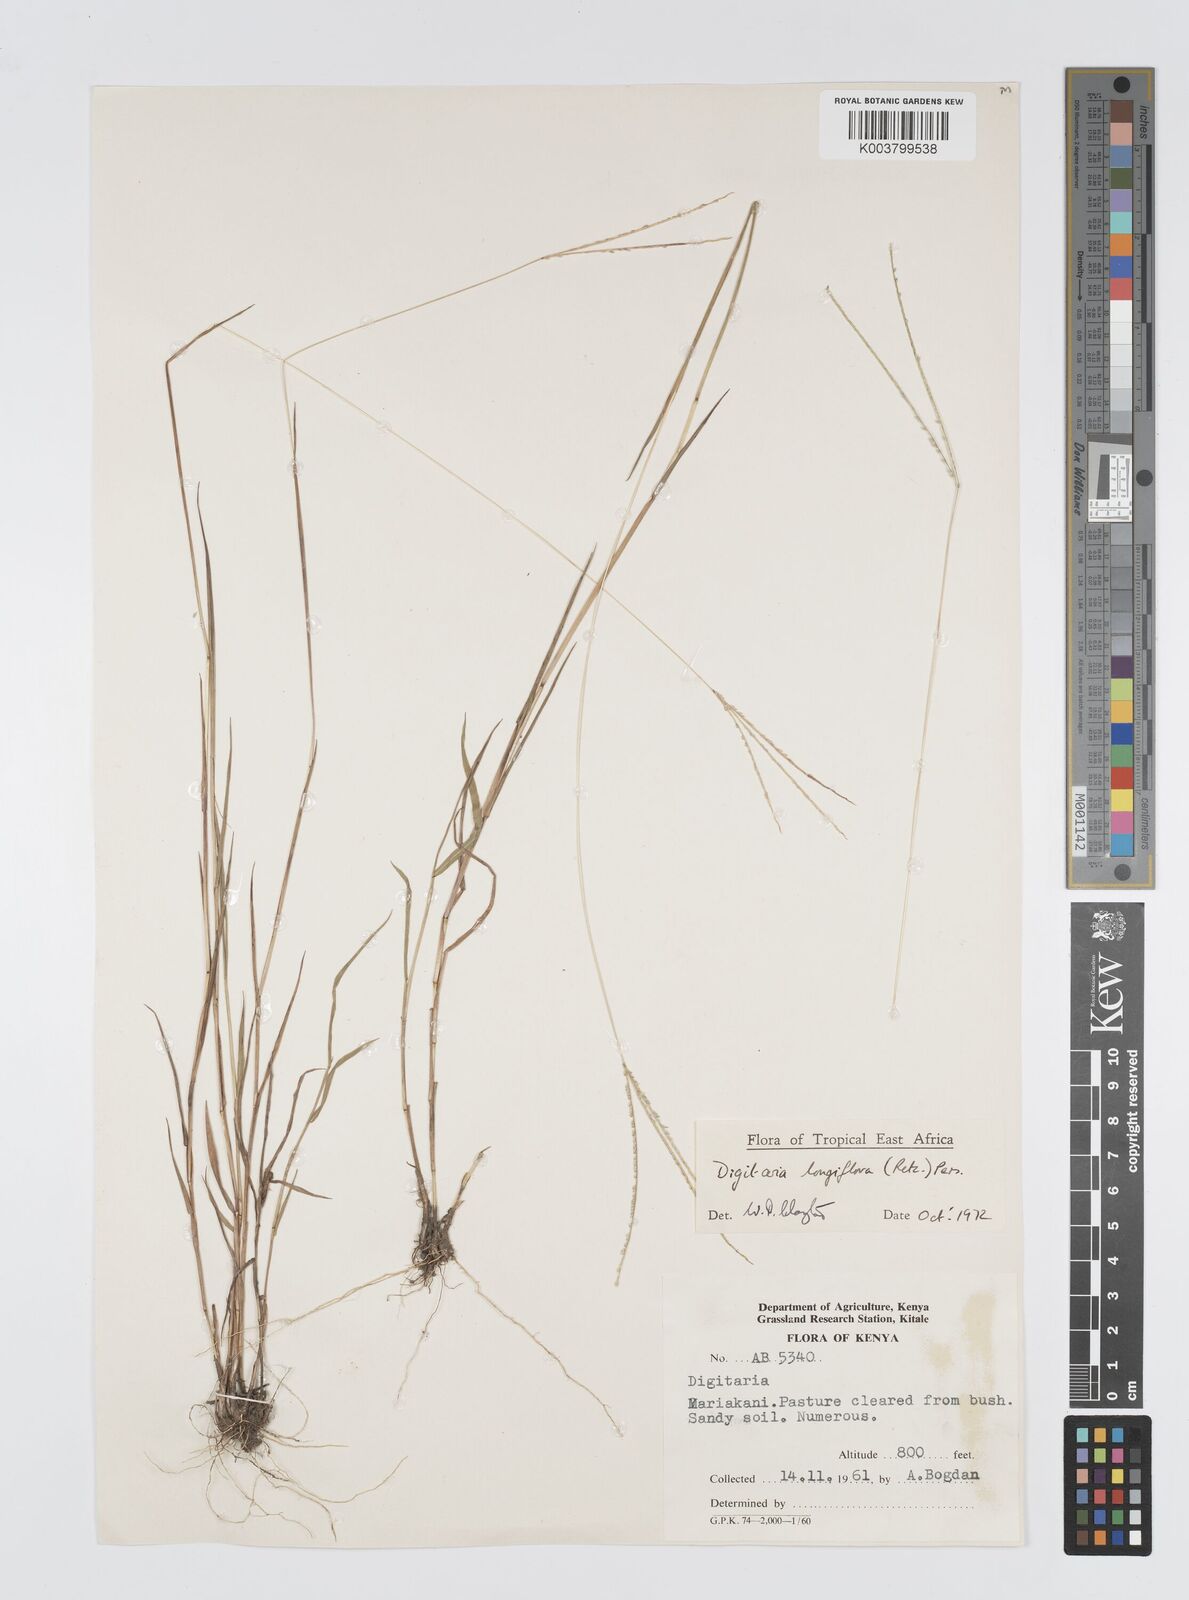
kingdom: Plantae
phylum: Tracheophyta
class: Liliopsida
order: Poales
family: Poaceae
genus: Digitaria
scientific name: Digitaria longiflora
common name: Wire crabgrass
